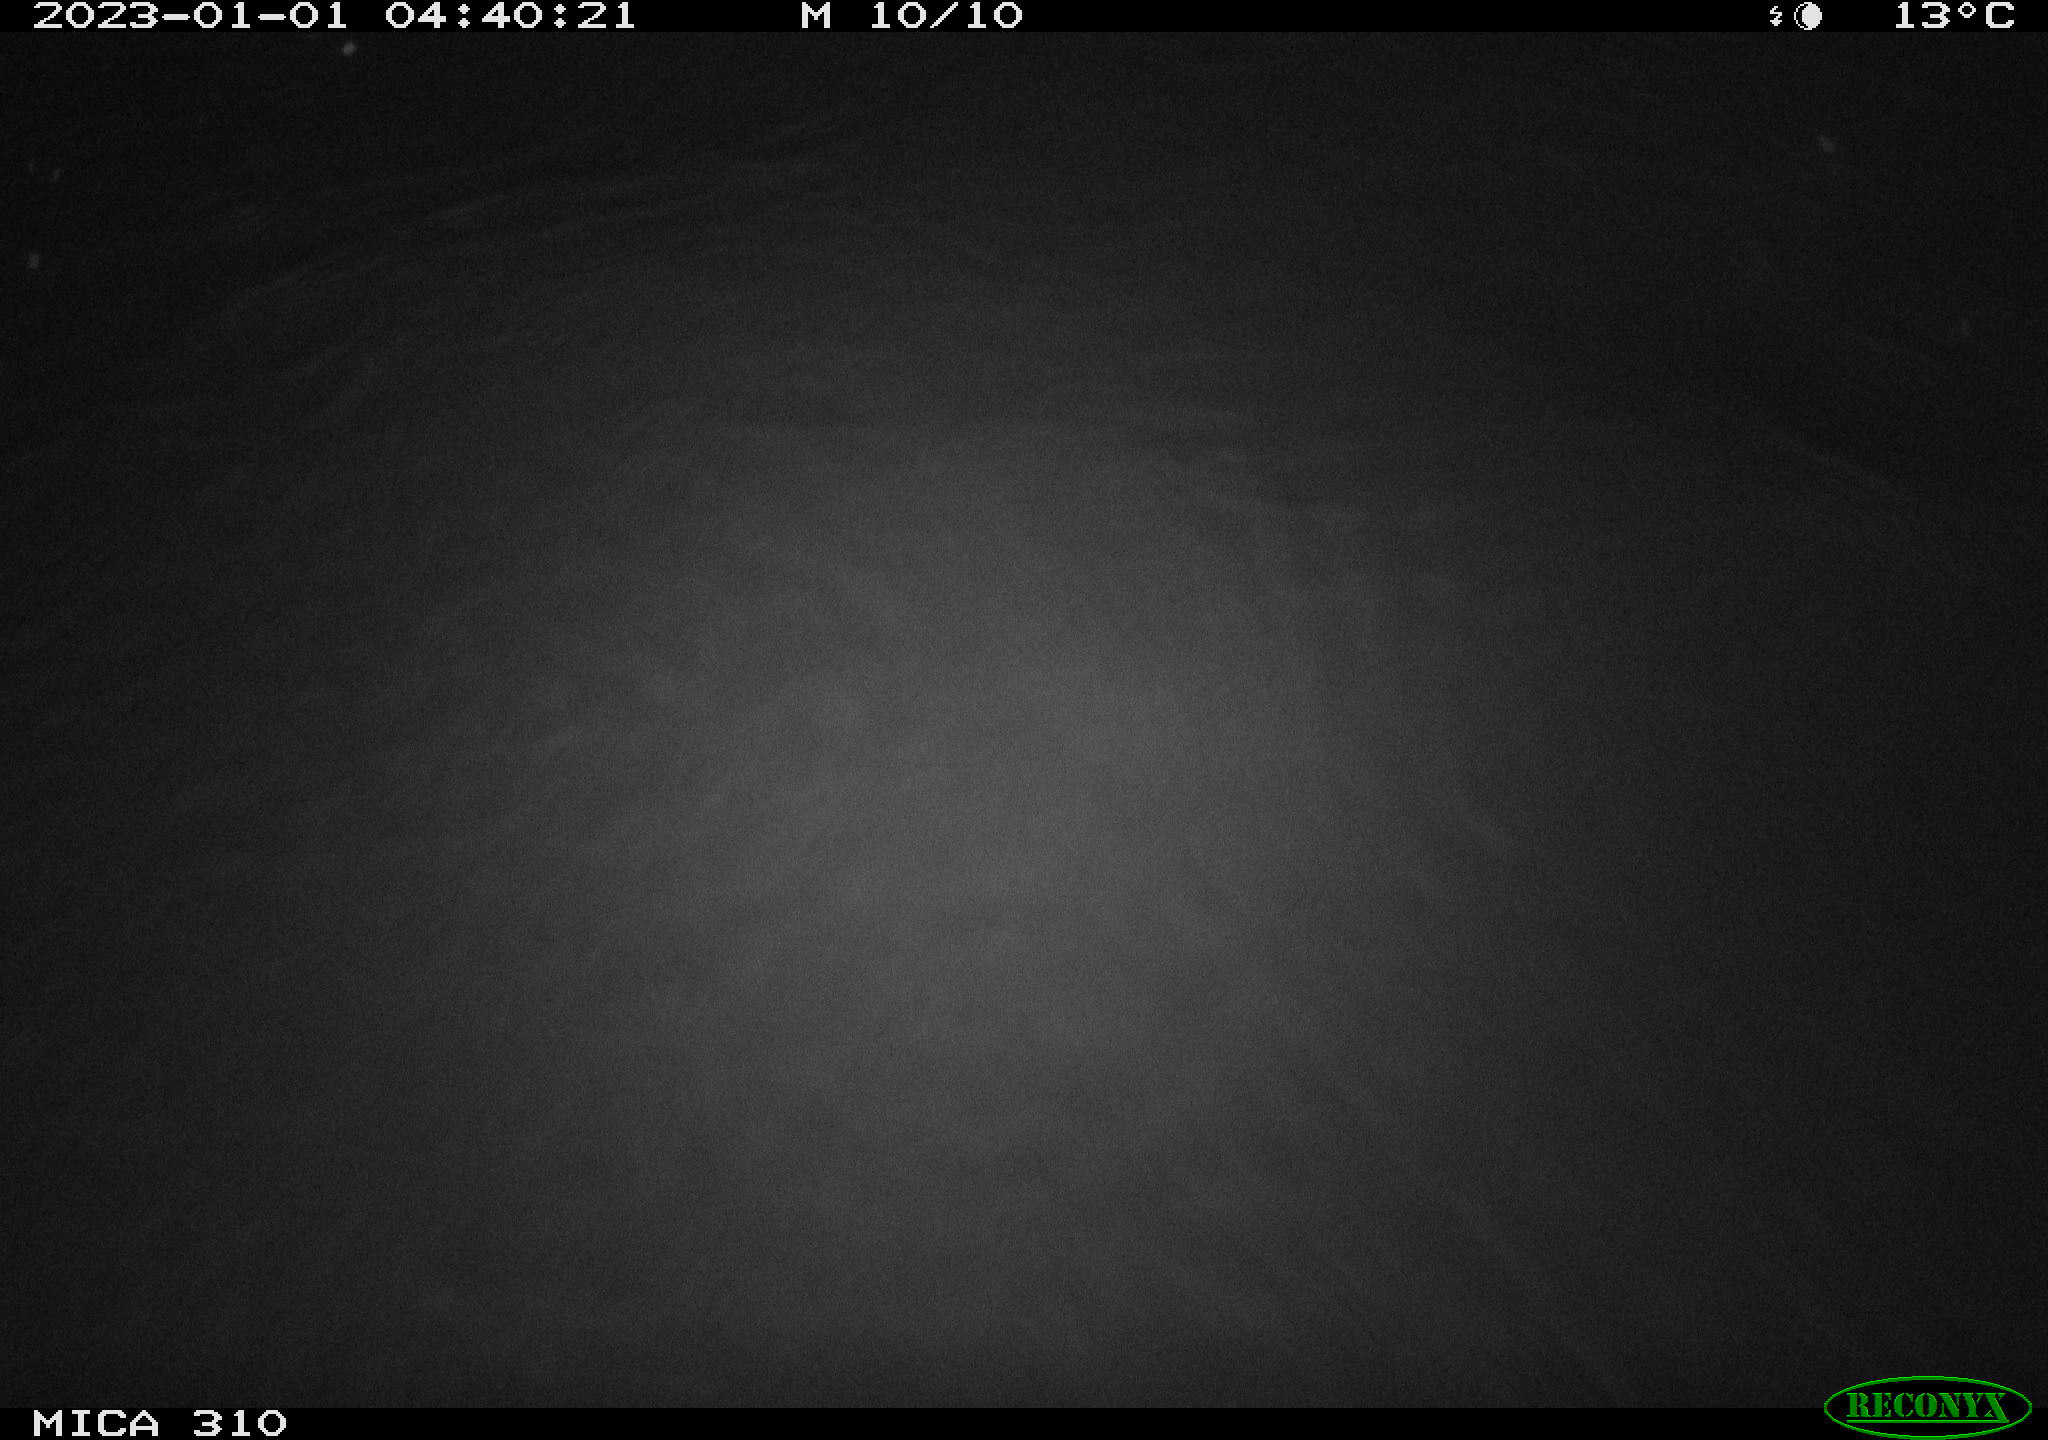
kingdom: Animalia
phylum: Chordata
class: Mammalia
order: Rodentia
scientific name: Rodentia
